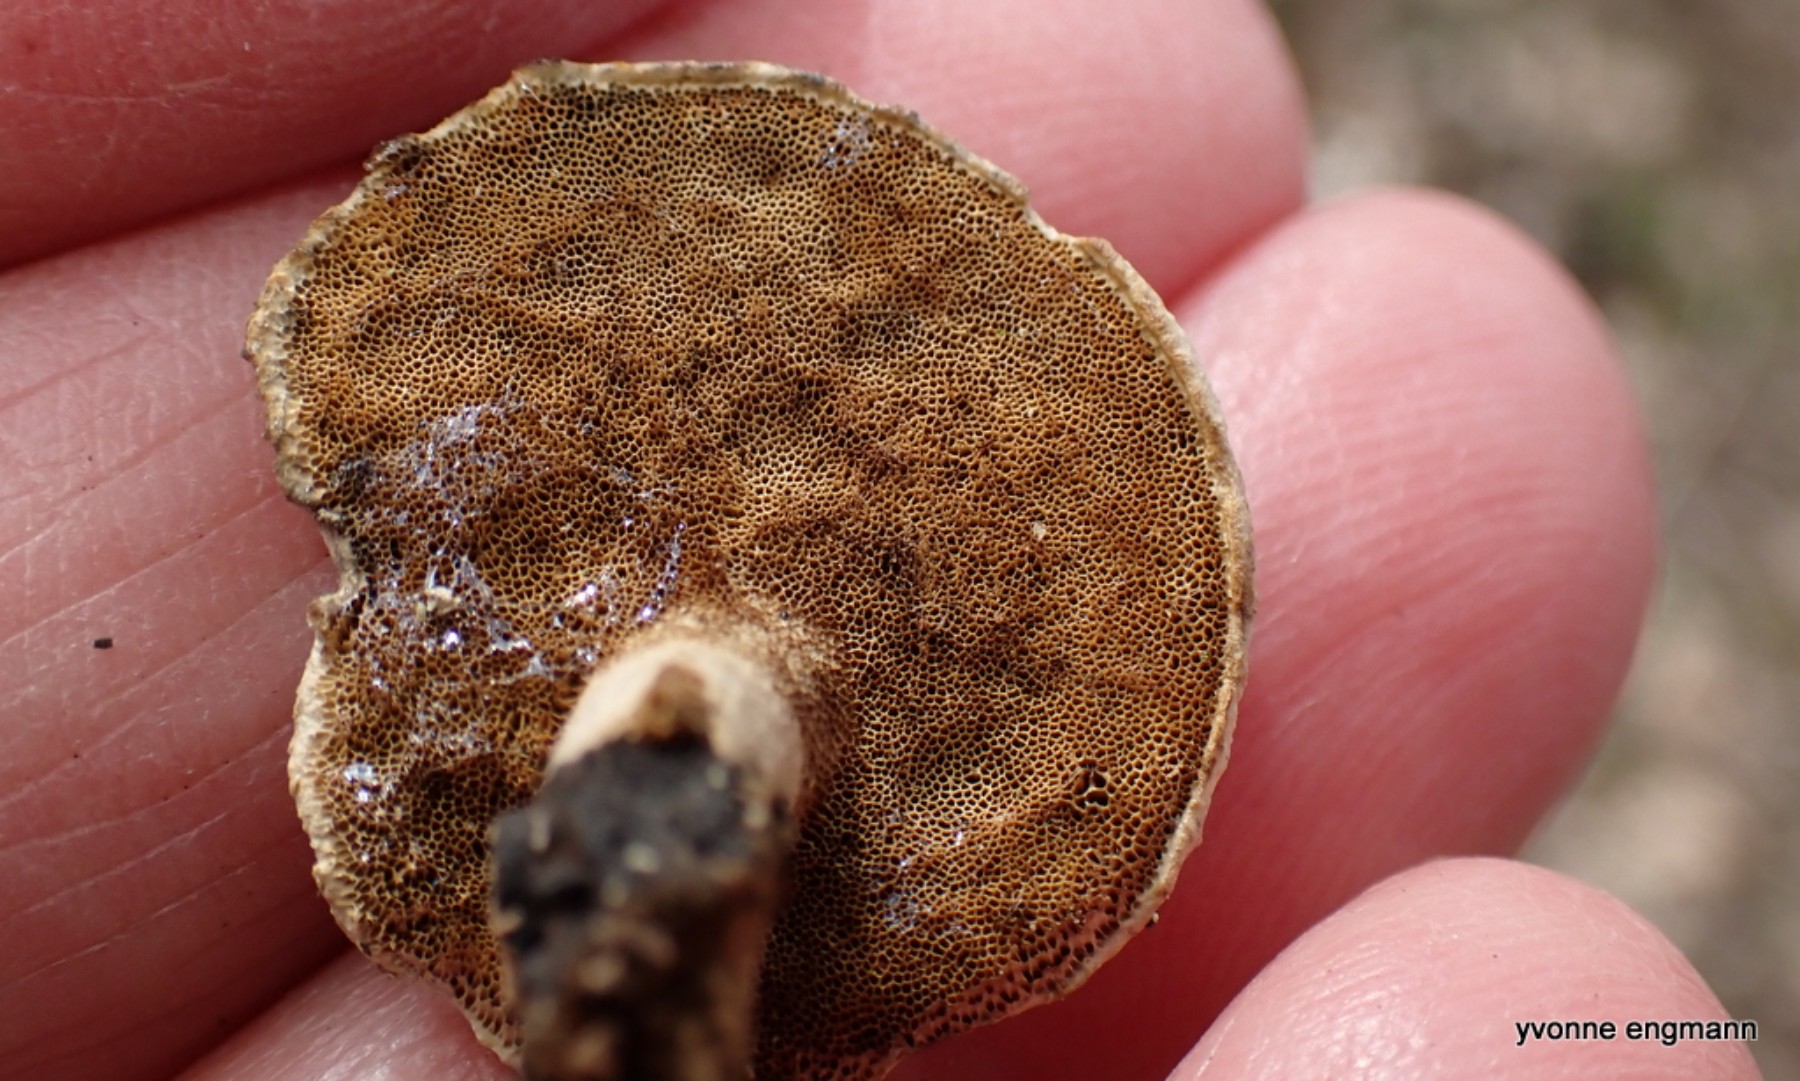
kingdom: Fungi
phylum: Basidiomycota
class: Agaricomycetes
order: Polyporales
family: Polyporaceae
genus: Cerioporus
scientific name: Cerioporus varius
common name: foranderlig stilkporesvamp
